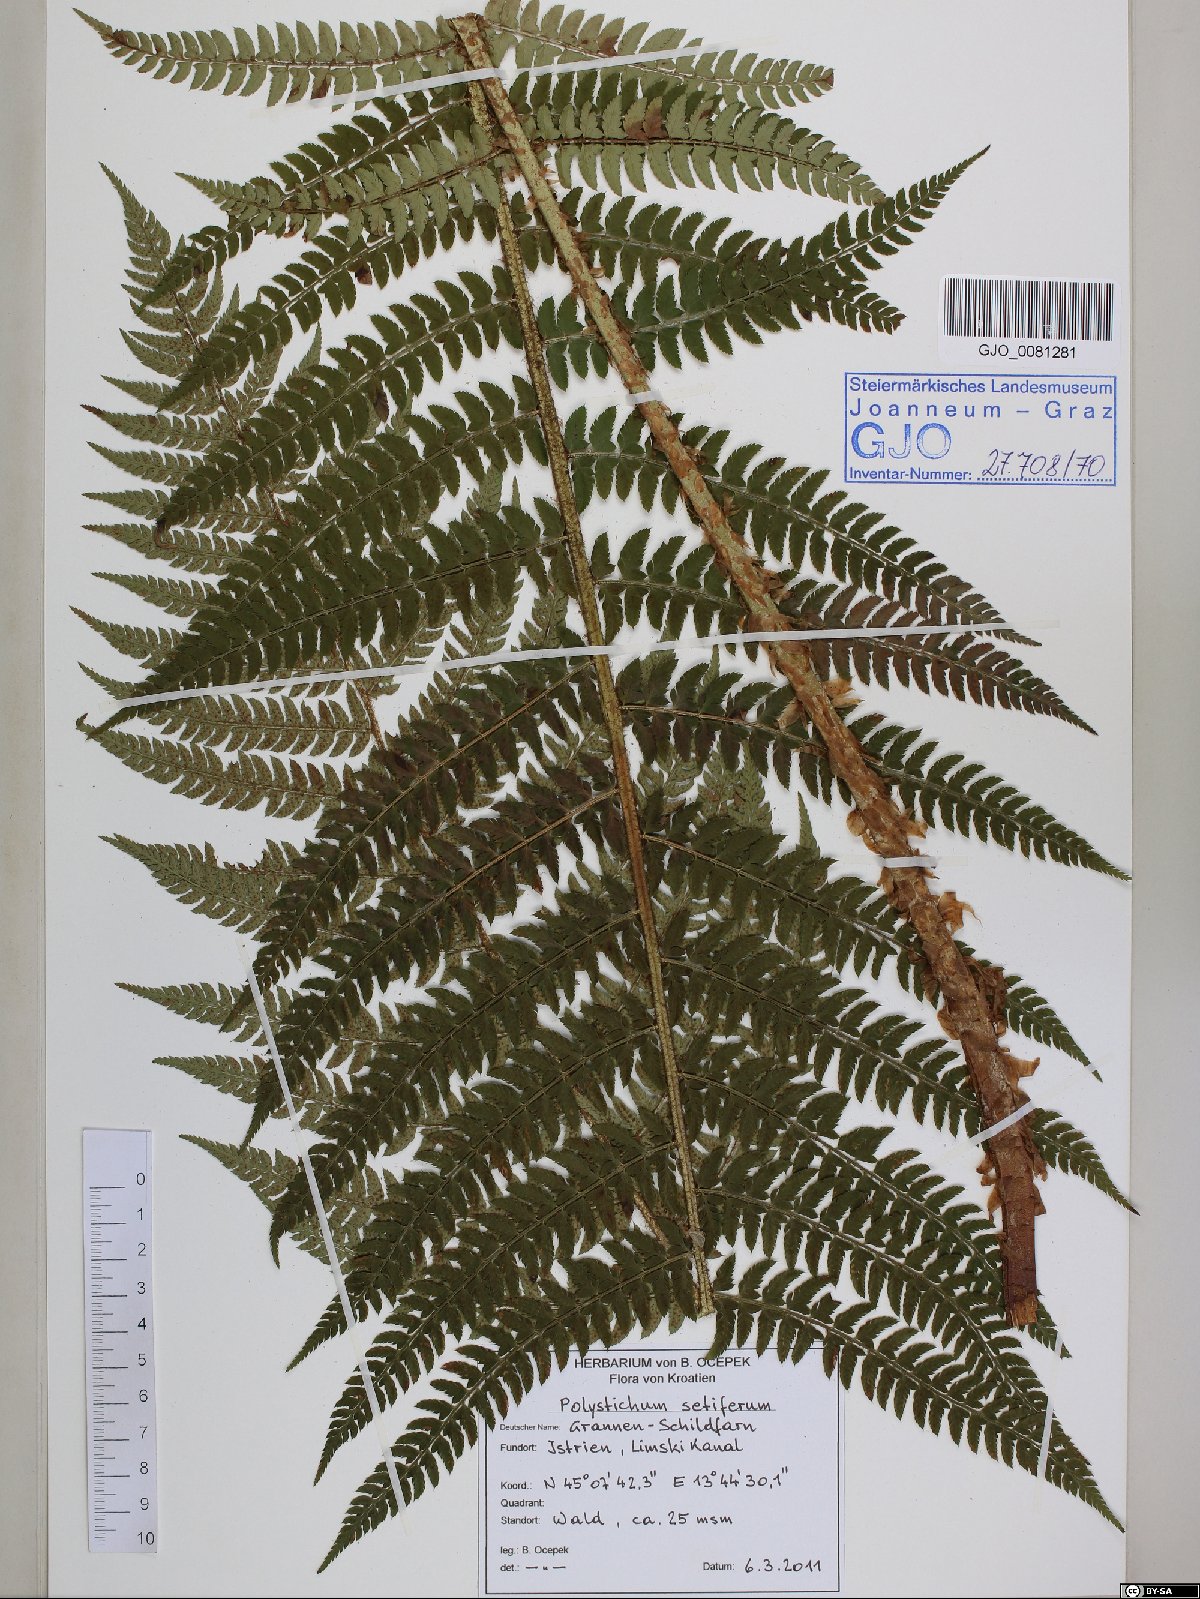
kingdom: Plantae
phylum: Tracheophyta
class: Polypodiopsida
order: Polypodiales
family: Dryopteridaceae
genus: Polystichum
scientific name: Polystichum setiferum
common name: Soft shield-fern
